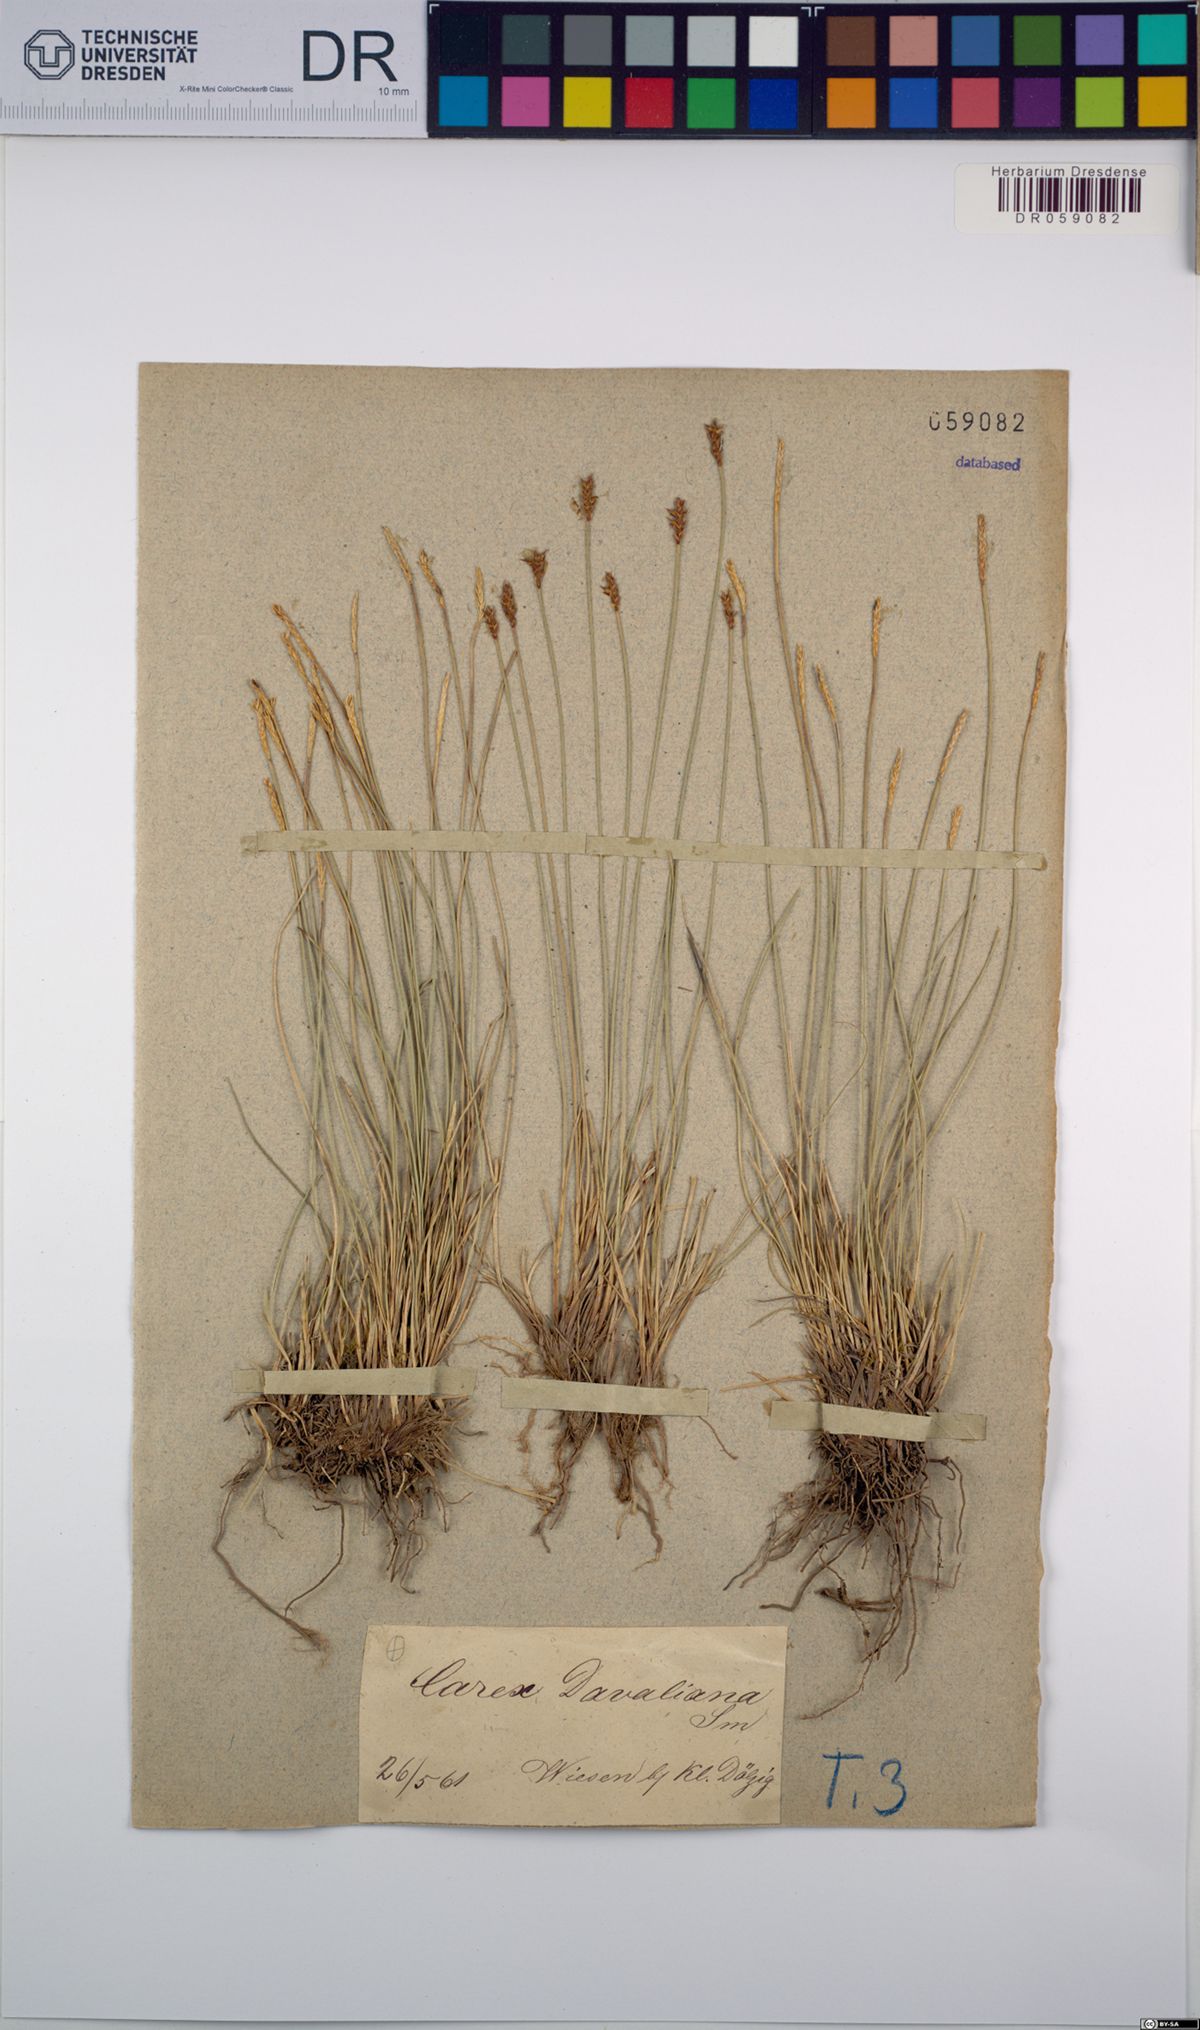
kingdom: Plantae
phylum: Tracheophyta
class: Liliopsida
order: Poales
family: Cyperaceae
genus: Carex
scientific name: Carex davalliana
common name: Davall's sedge
